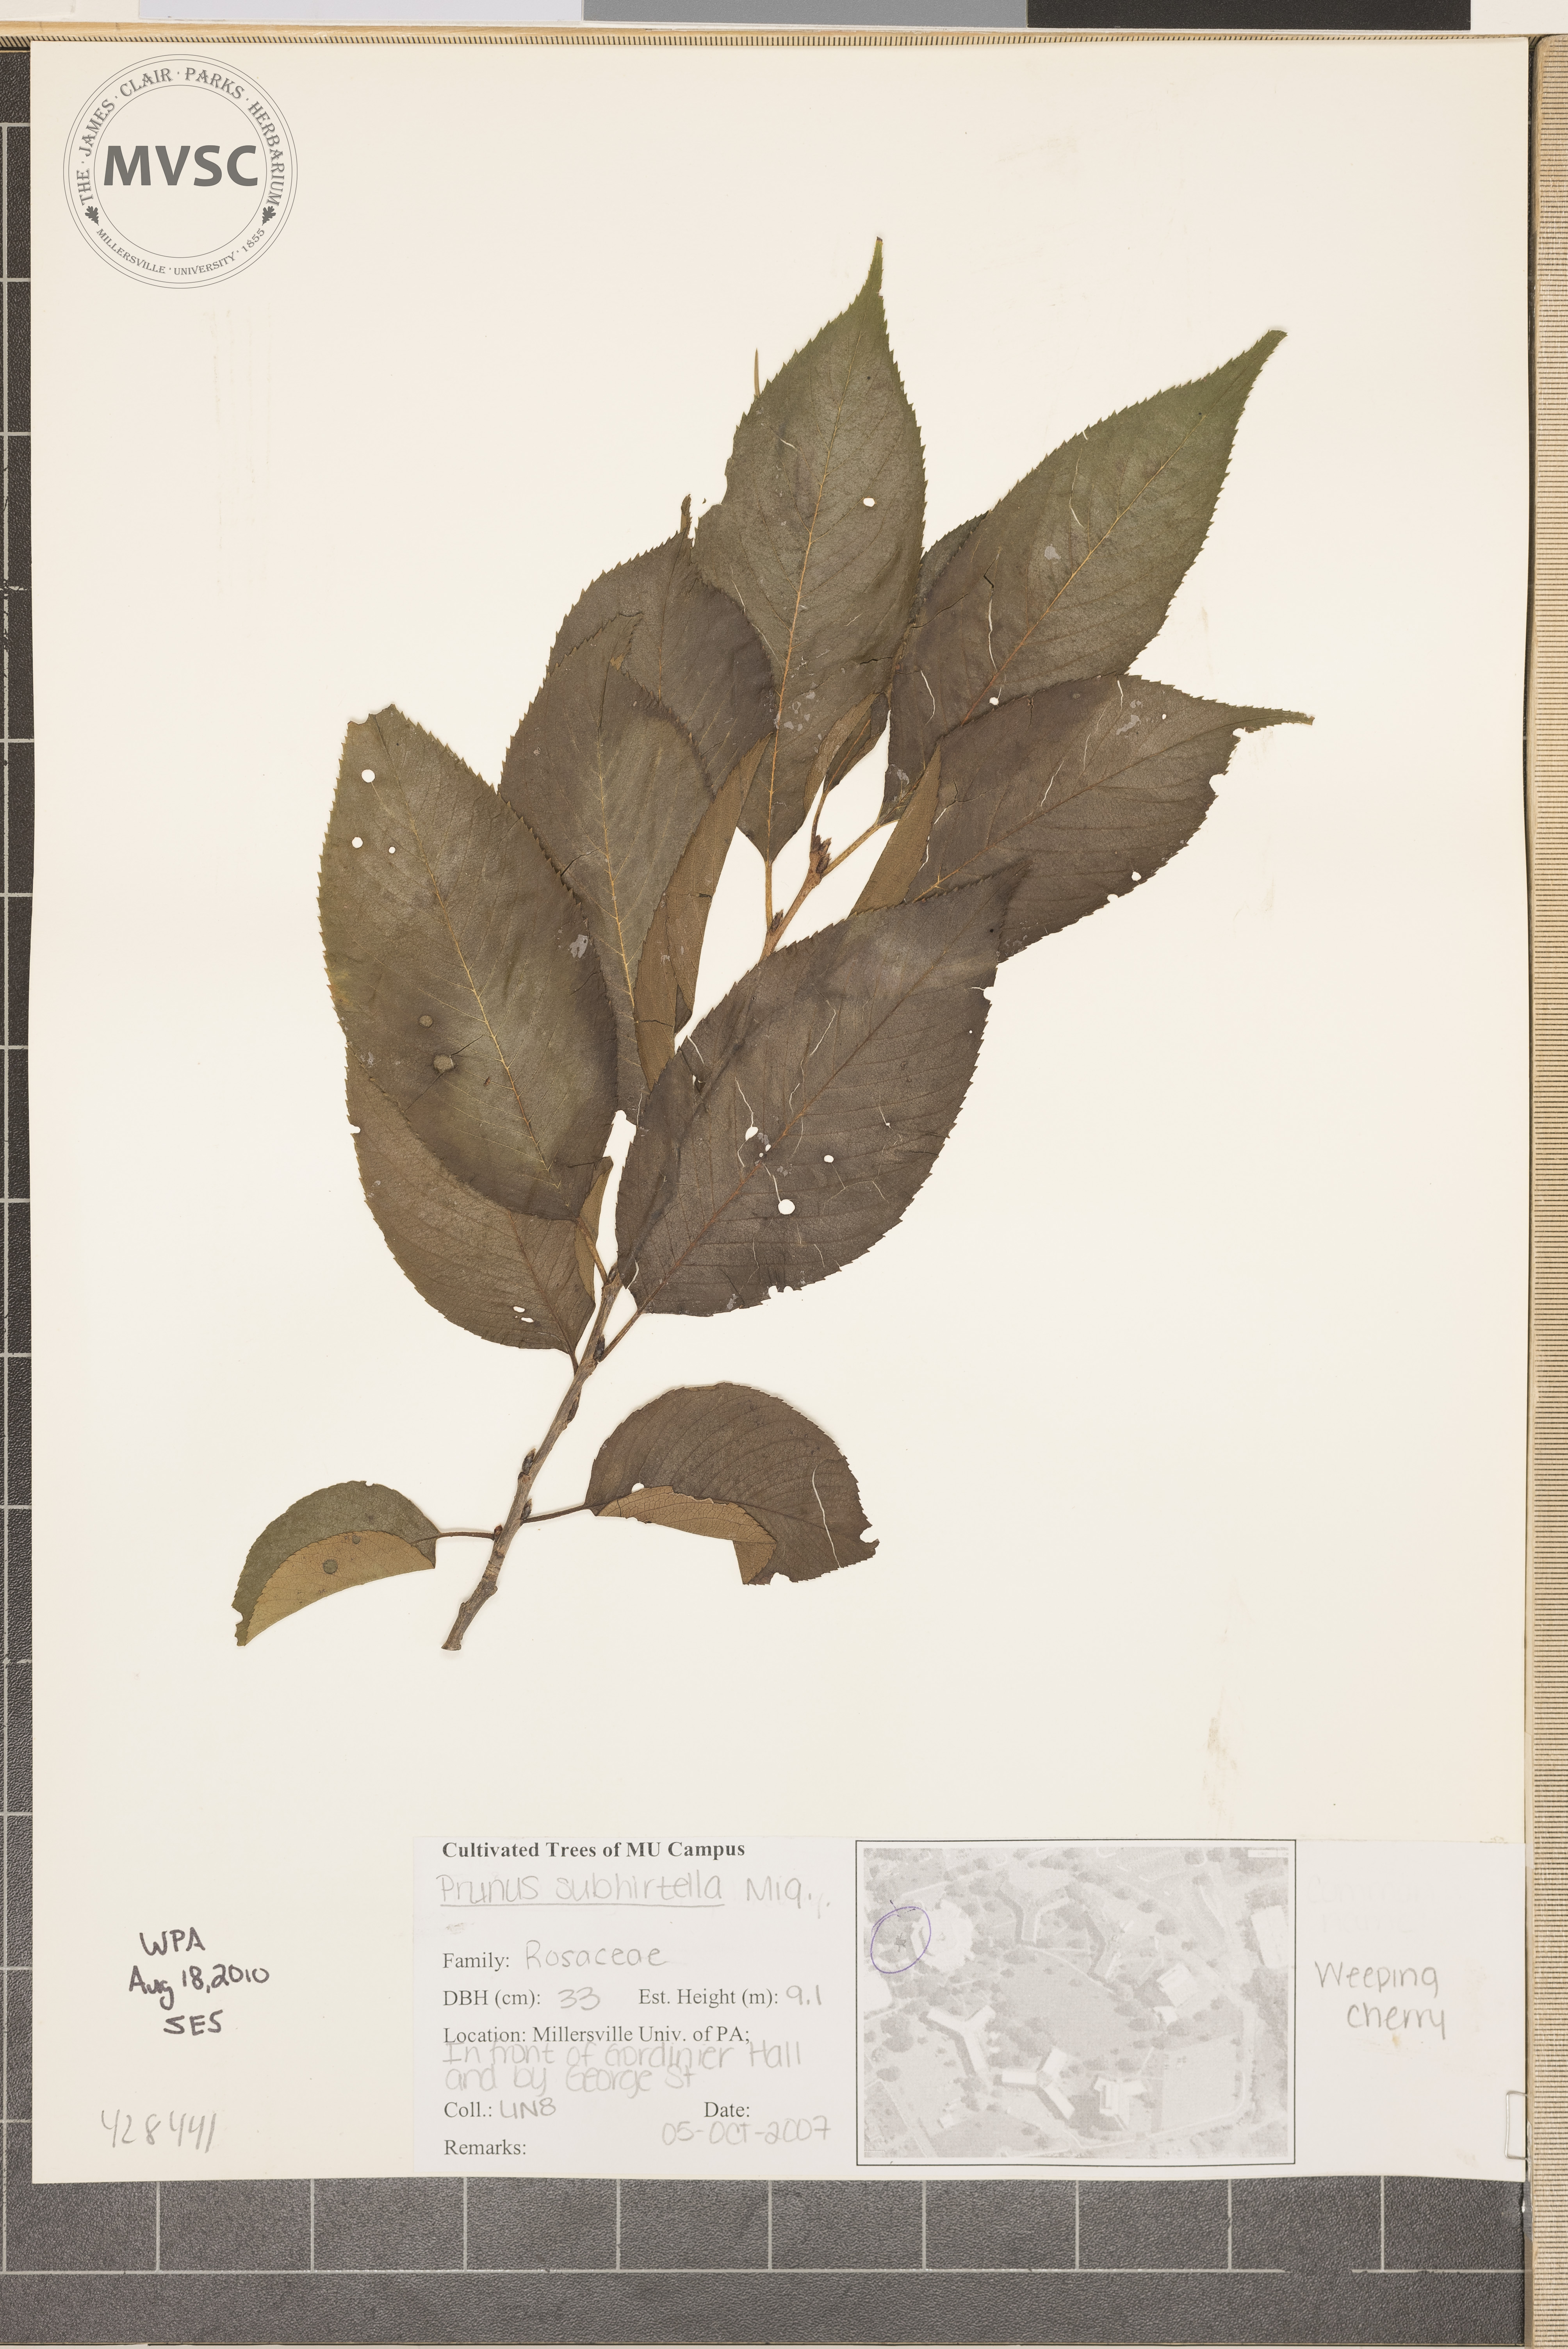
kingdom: Plantae
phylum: Tracheophyta
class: Magnoliopsida
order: Rosales
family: Rosaceae
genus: Prunus
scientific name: Prunus subhirtella
